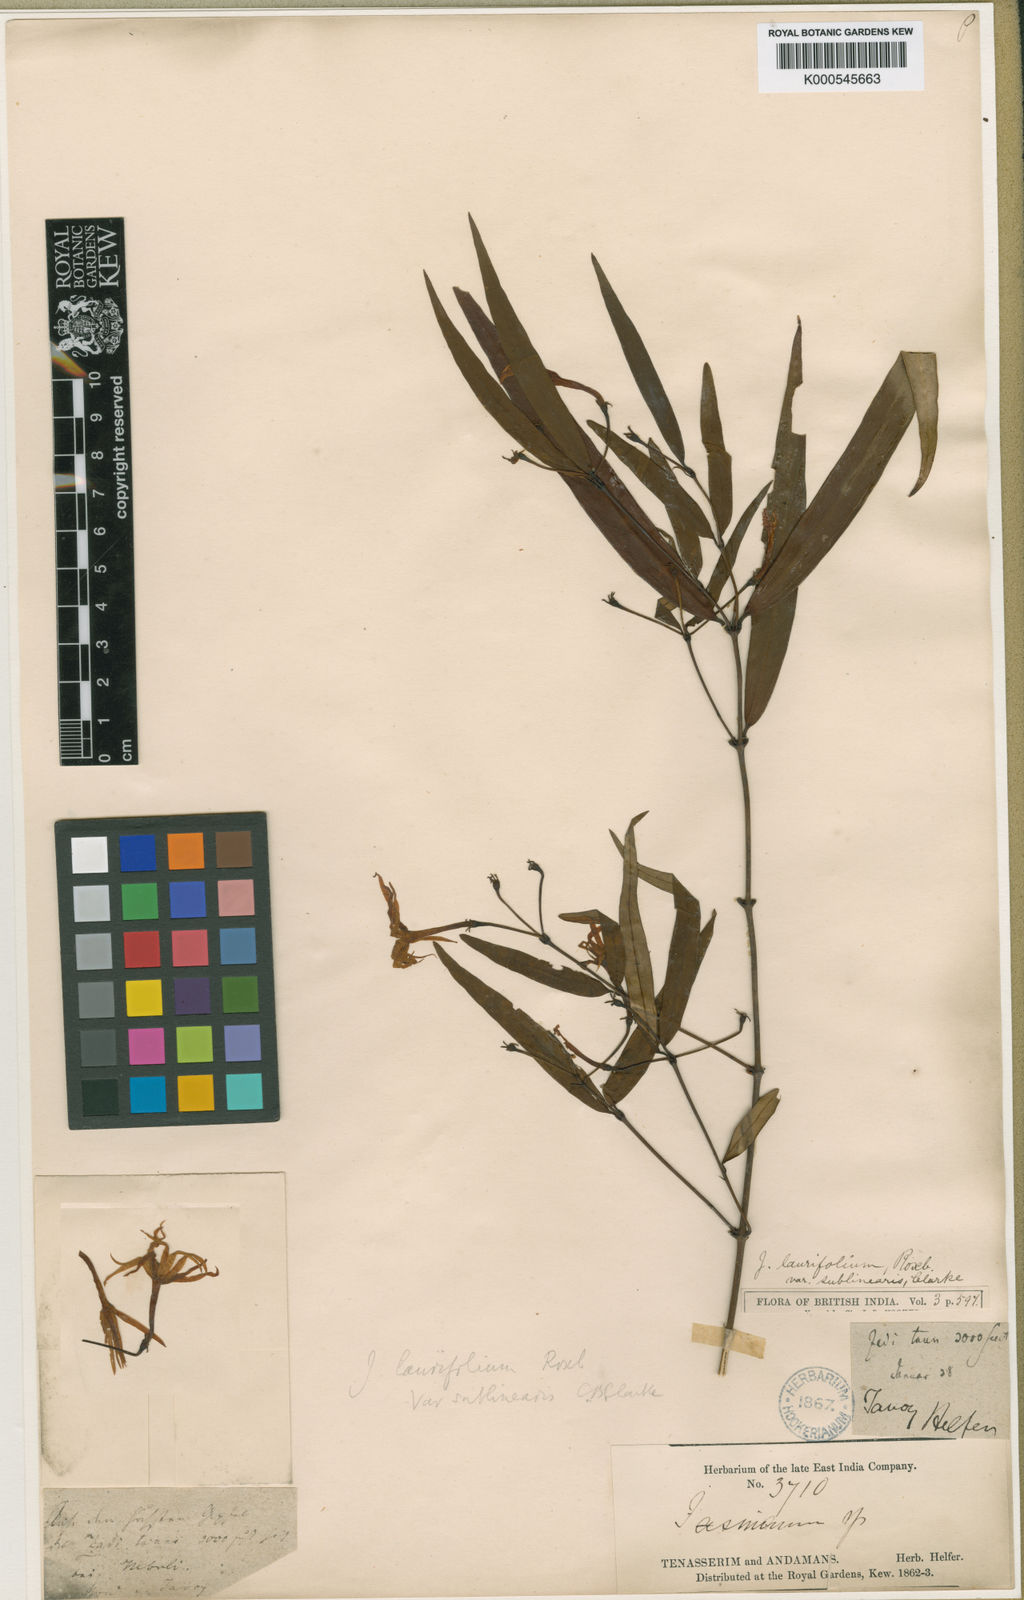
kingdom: Plantae
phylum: Tracheophyta
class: Magnoliopsida
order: Lamiales
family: Oleaceae
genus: Jasminum
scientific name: Jasminum laurifolium
